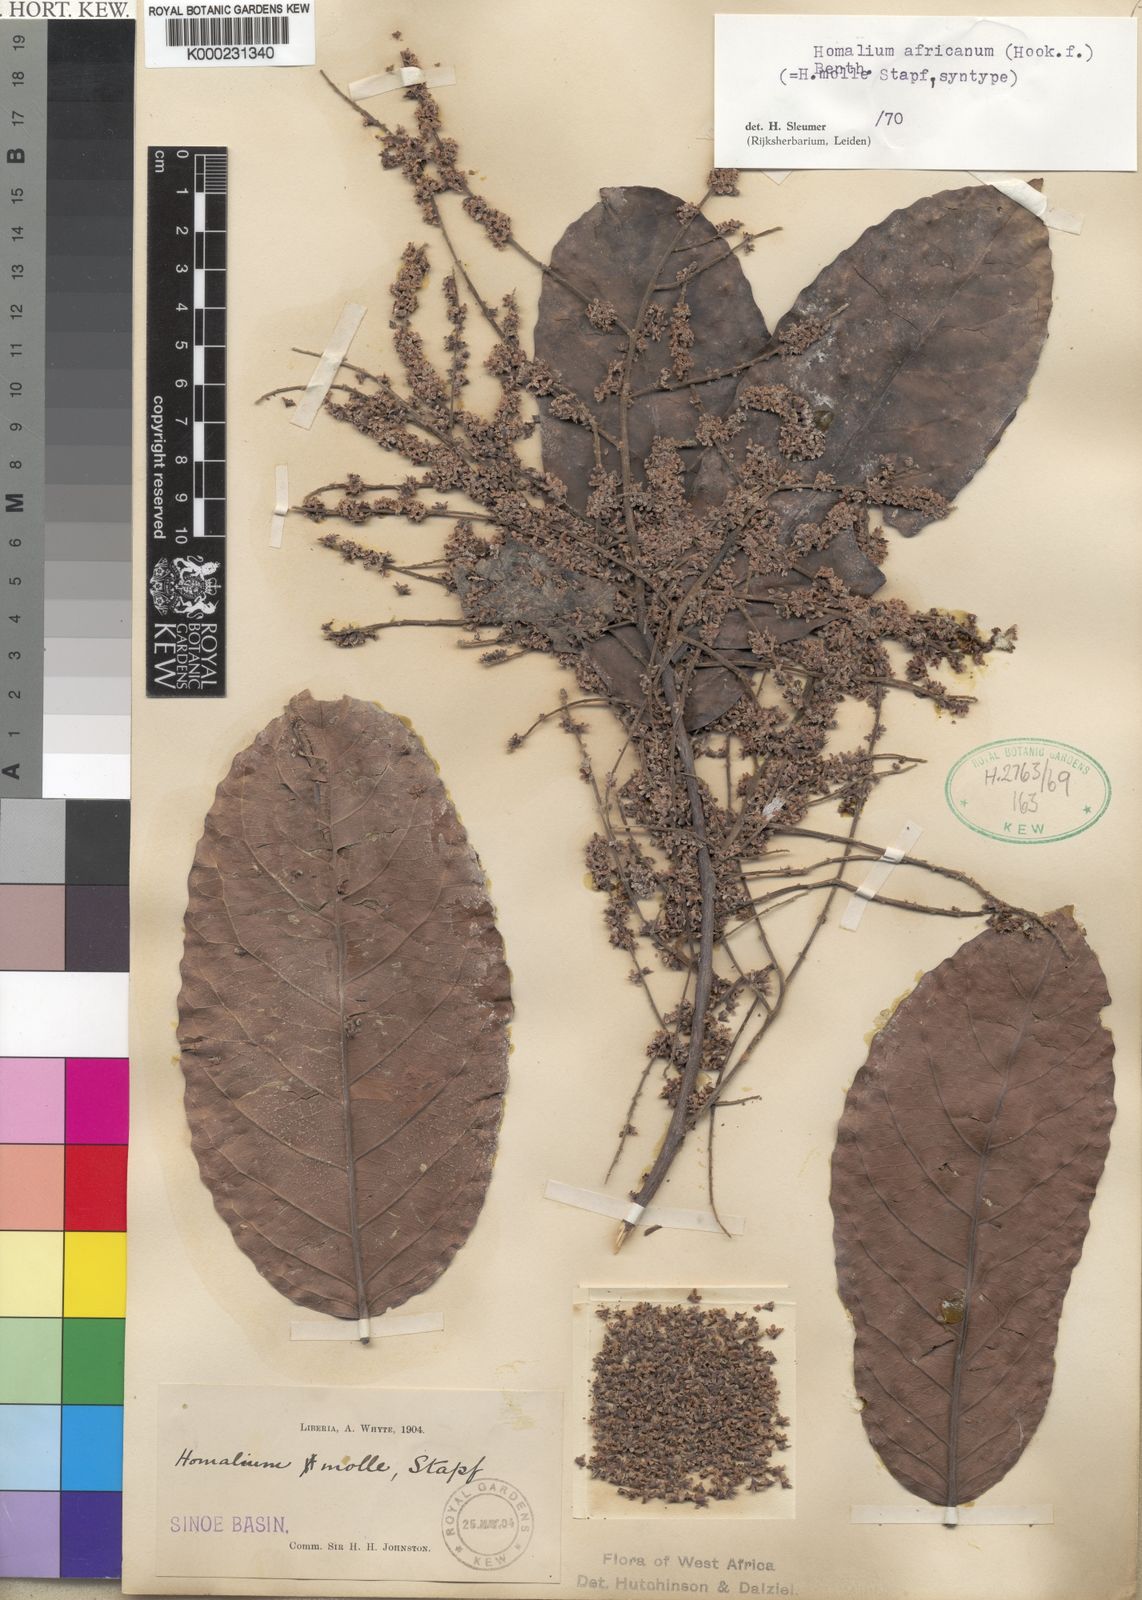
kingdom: Plantae
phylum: Tracheophyta
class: Magnoliopsida
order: Malpighiales
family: Salicaceae
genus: Homalium
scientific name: Homalium africanum
